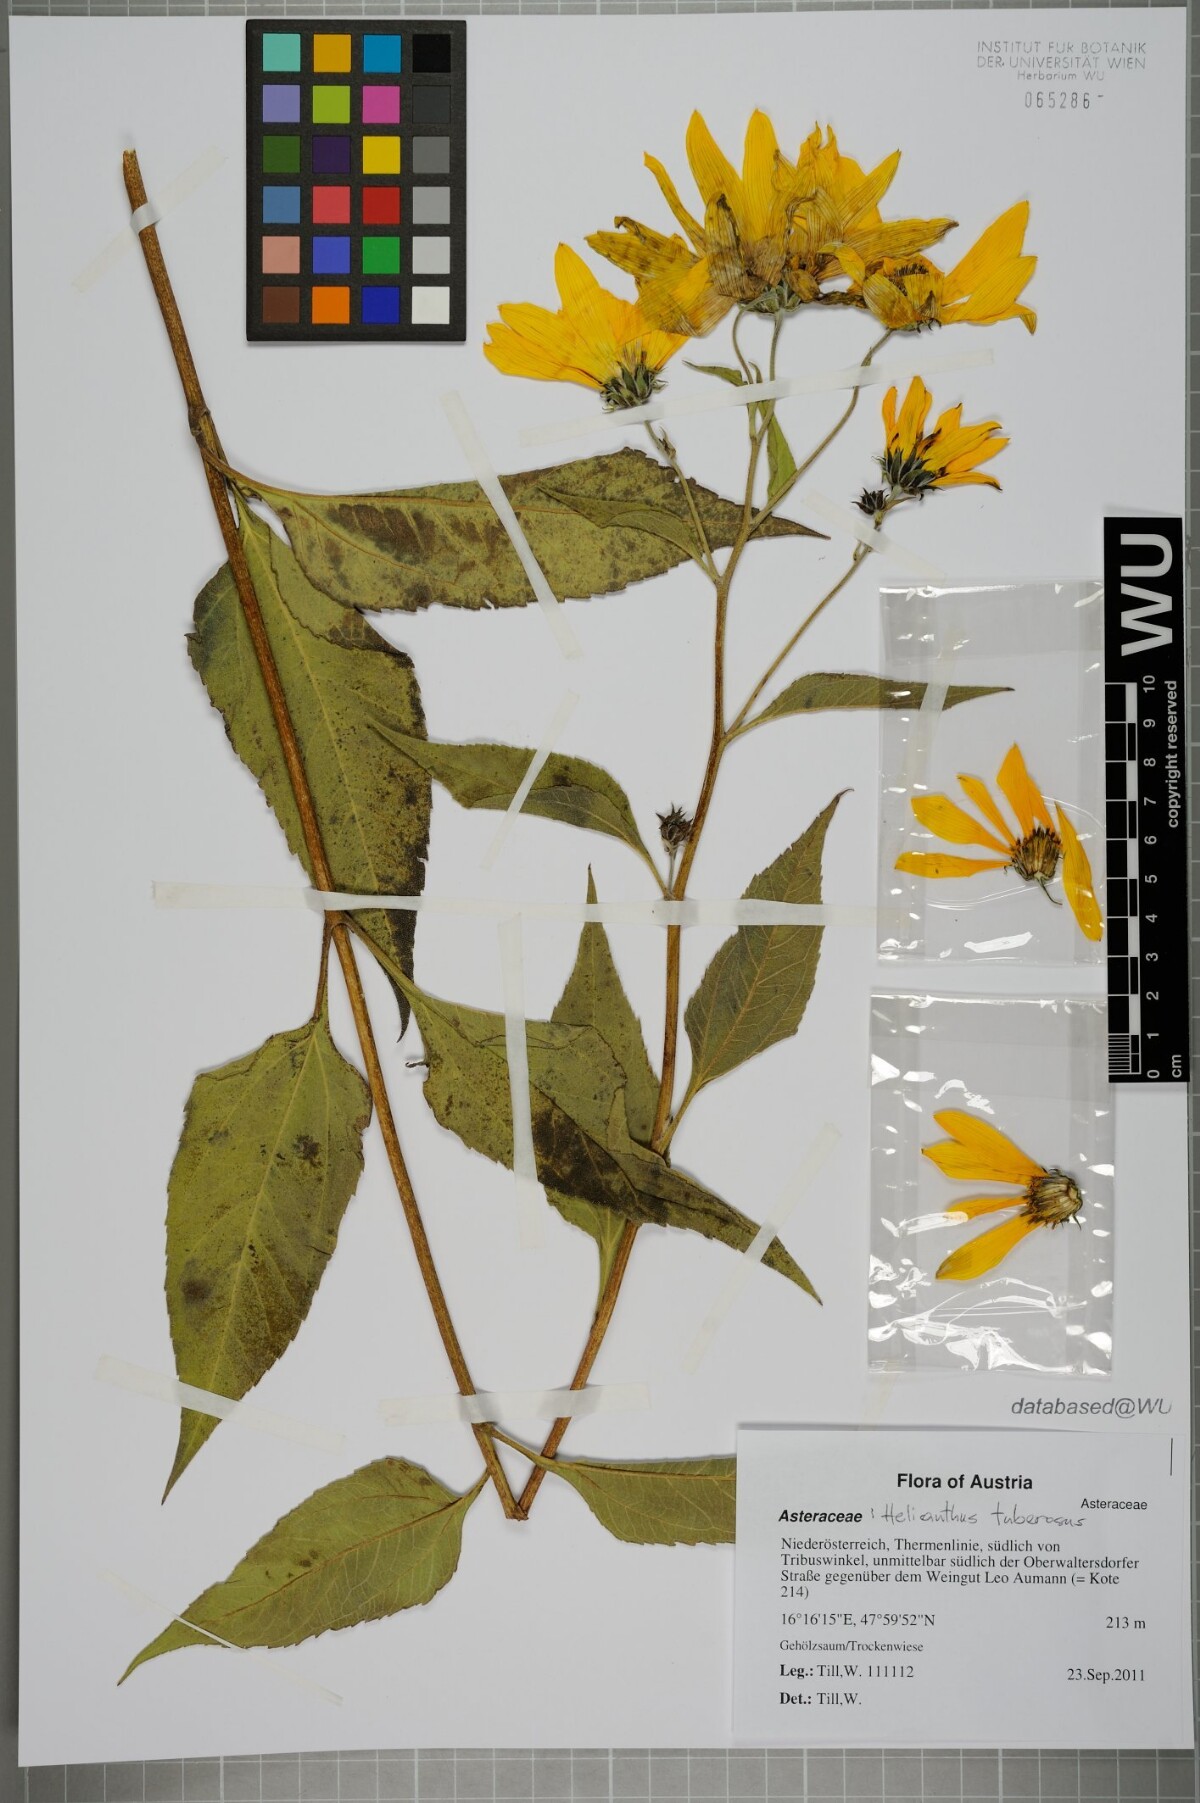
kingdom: Plantae
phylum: Tracheophyta
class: Magnoliopsida
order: Asterales
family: Asteraceae
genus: Helianthus
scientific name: Helianthus tuberosus
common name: Jerusalem artichoke
